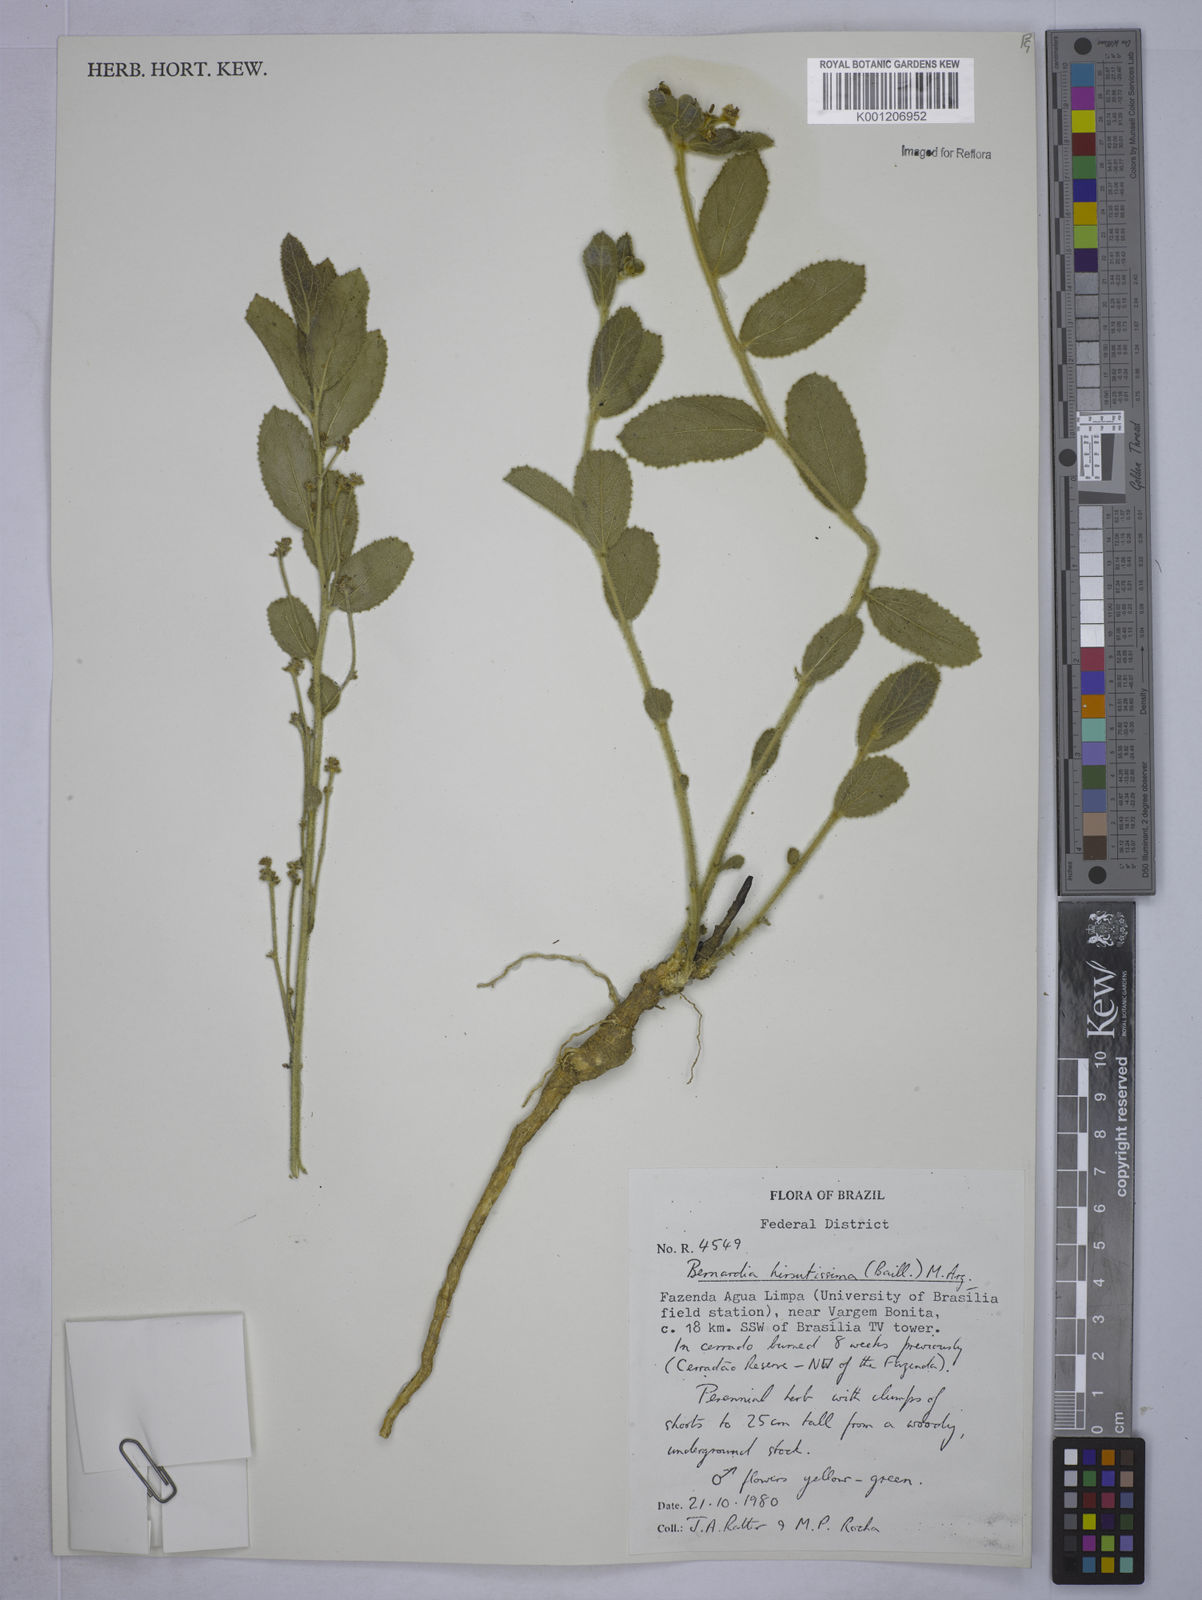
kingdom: Plantae
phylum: Tracheophyta
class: Magnoliopsida
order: Malpighiales
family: Euphorbiaceae
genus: Bernardia
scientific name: Bernardia
